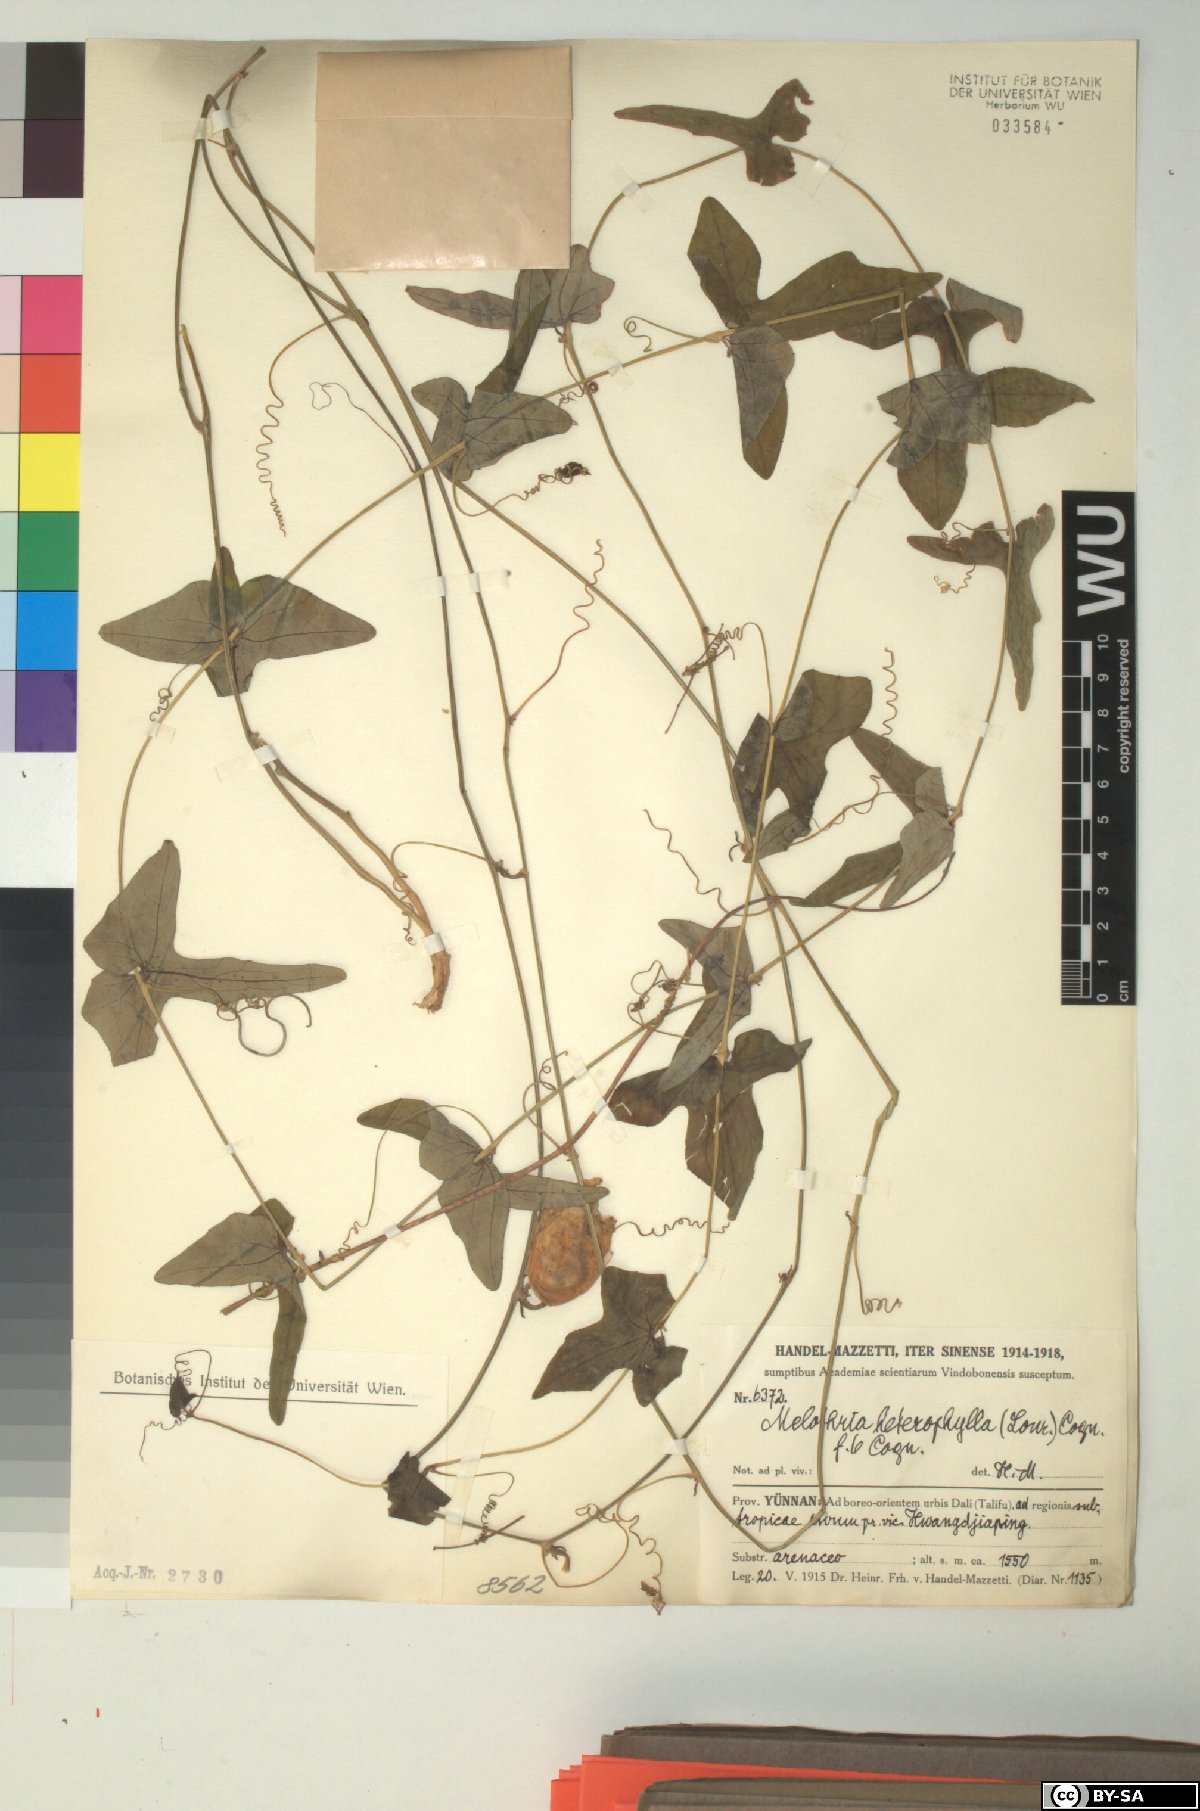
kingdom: Plantae
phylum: Tracheophyta
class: Magnoliopsida
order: Cucurbitales
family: Cucurbitaceae
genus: Melothria
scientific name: Melothria trilobata
